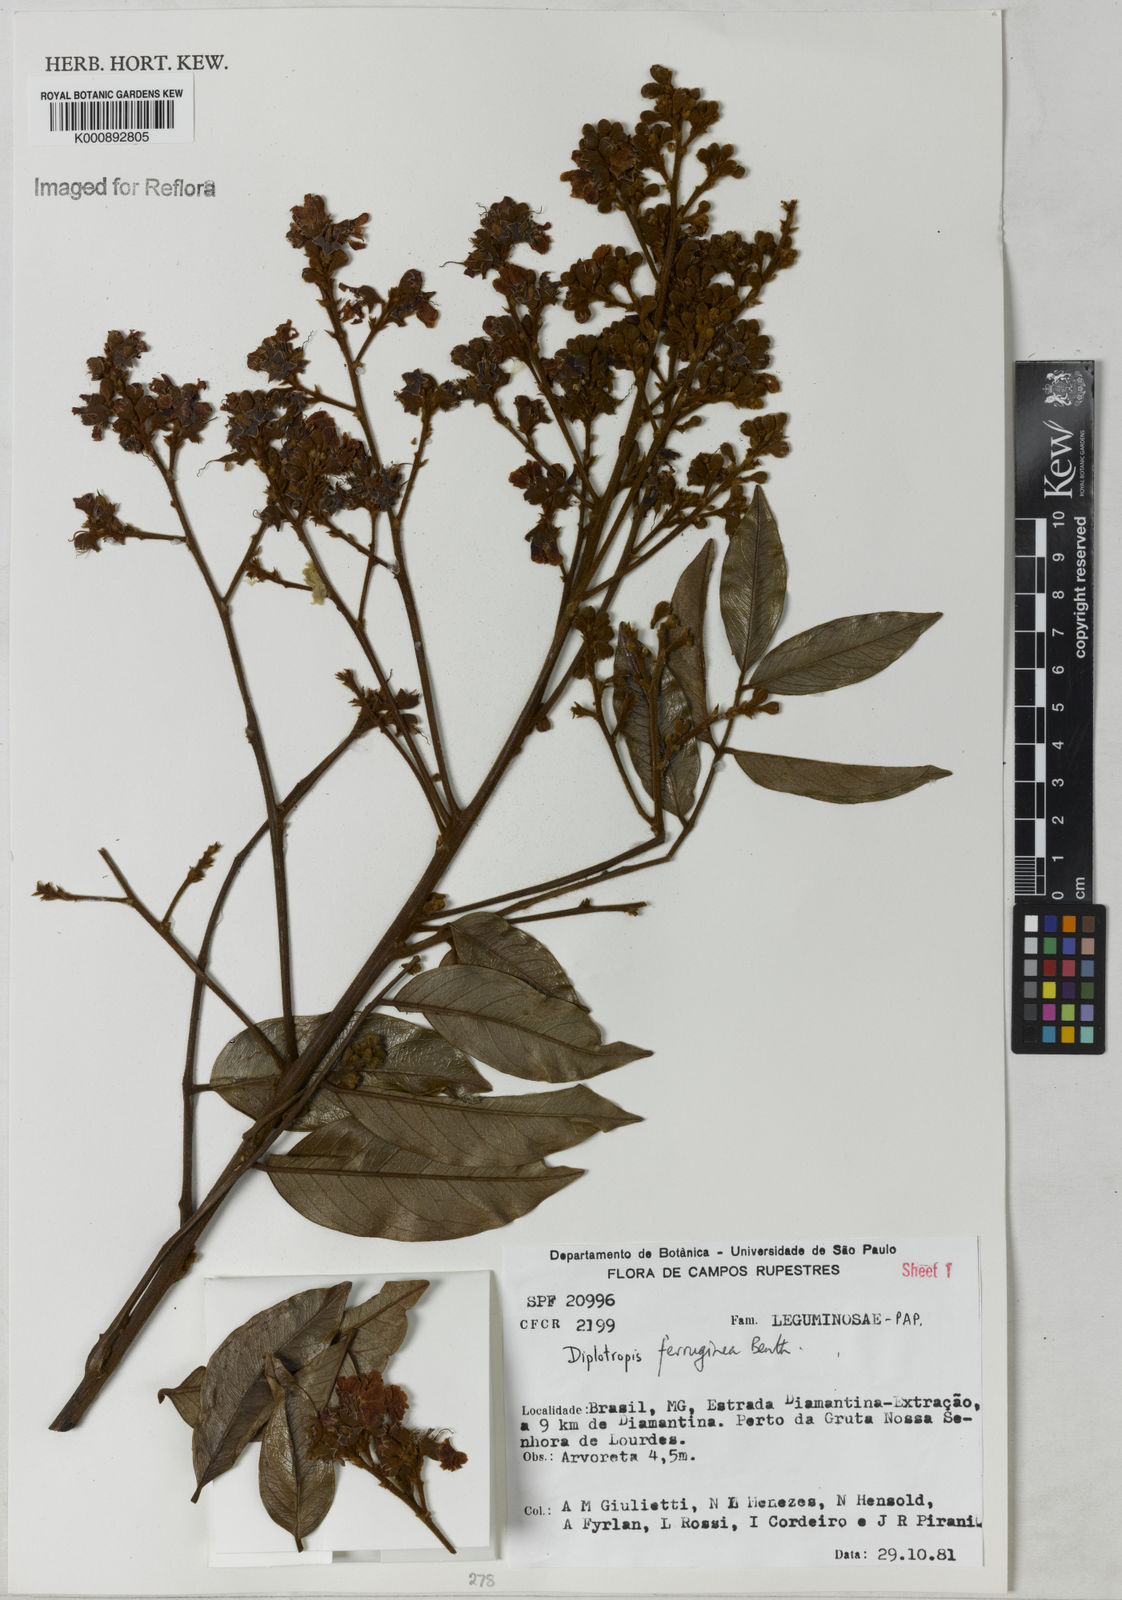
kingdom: Plantae
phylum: Tracheophyta
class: Magnoliopsida
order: Fabales
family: Fabaceae
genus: Diplotropis
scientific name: Diplotropis ferruginea
